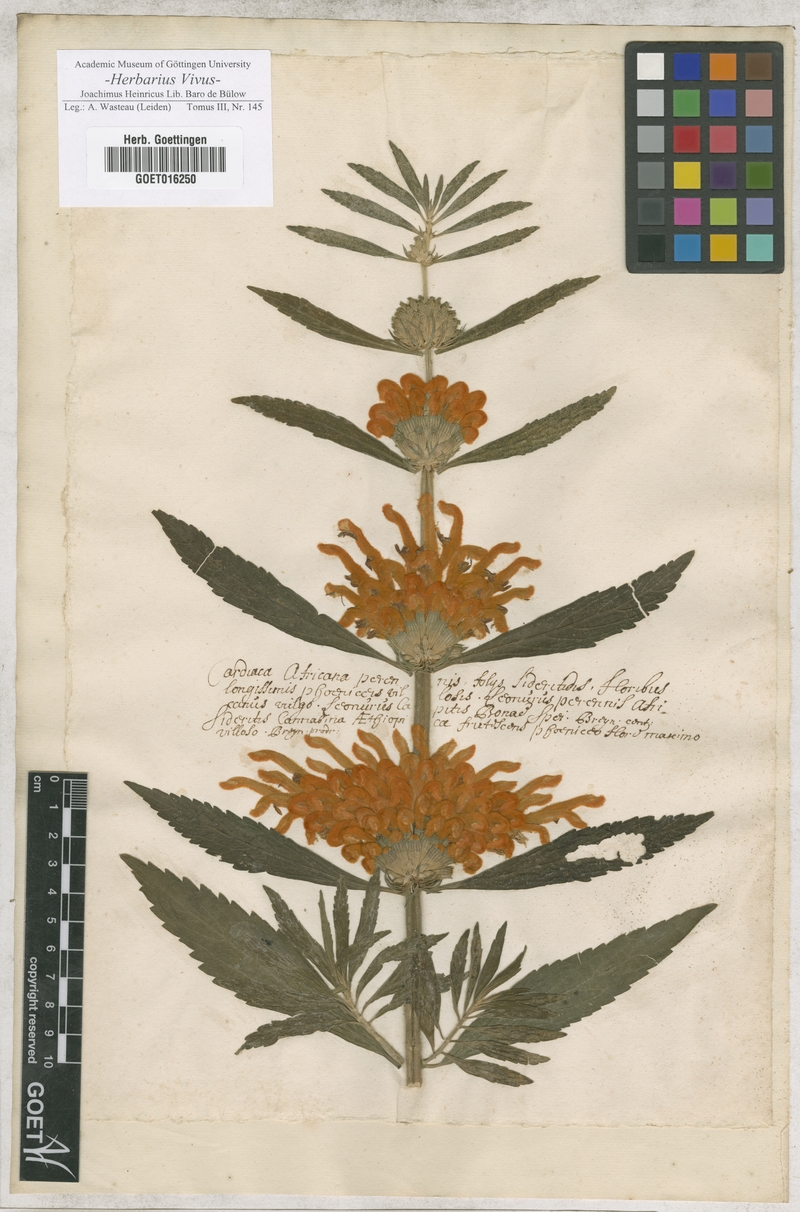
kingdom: Plantae
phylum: Tracheophyta
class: Magnoliopsida
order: Lamiales
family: Lamiaceae
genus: Leonotis
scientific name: Leonotis leonurus
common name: Lion's ear
